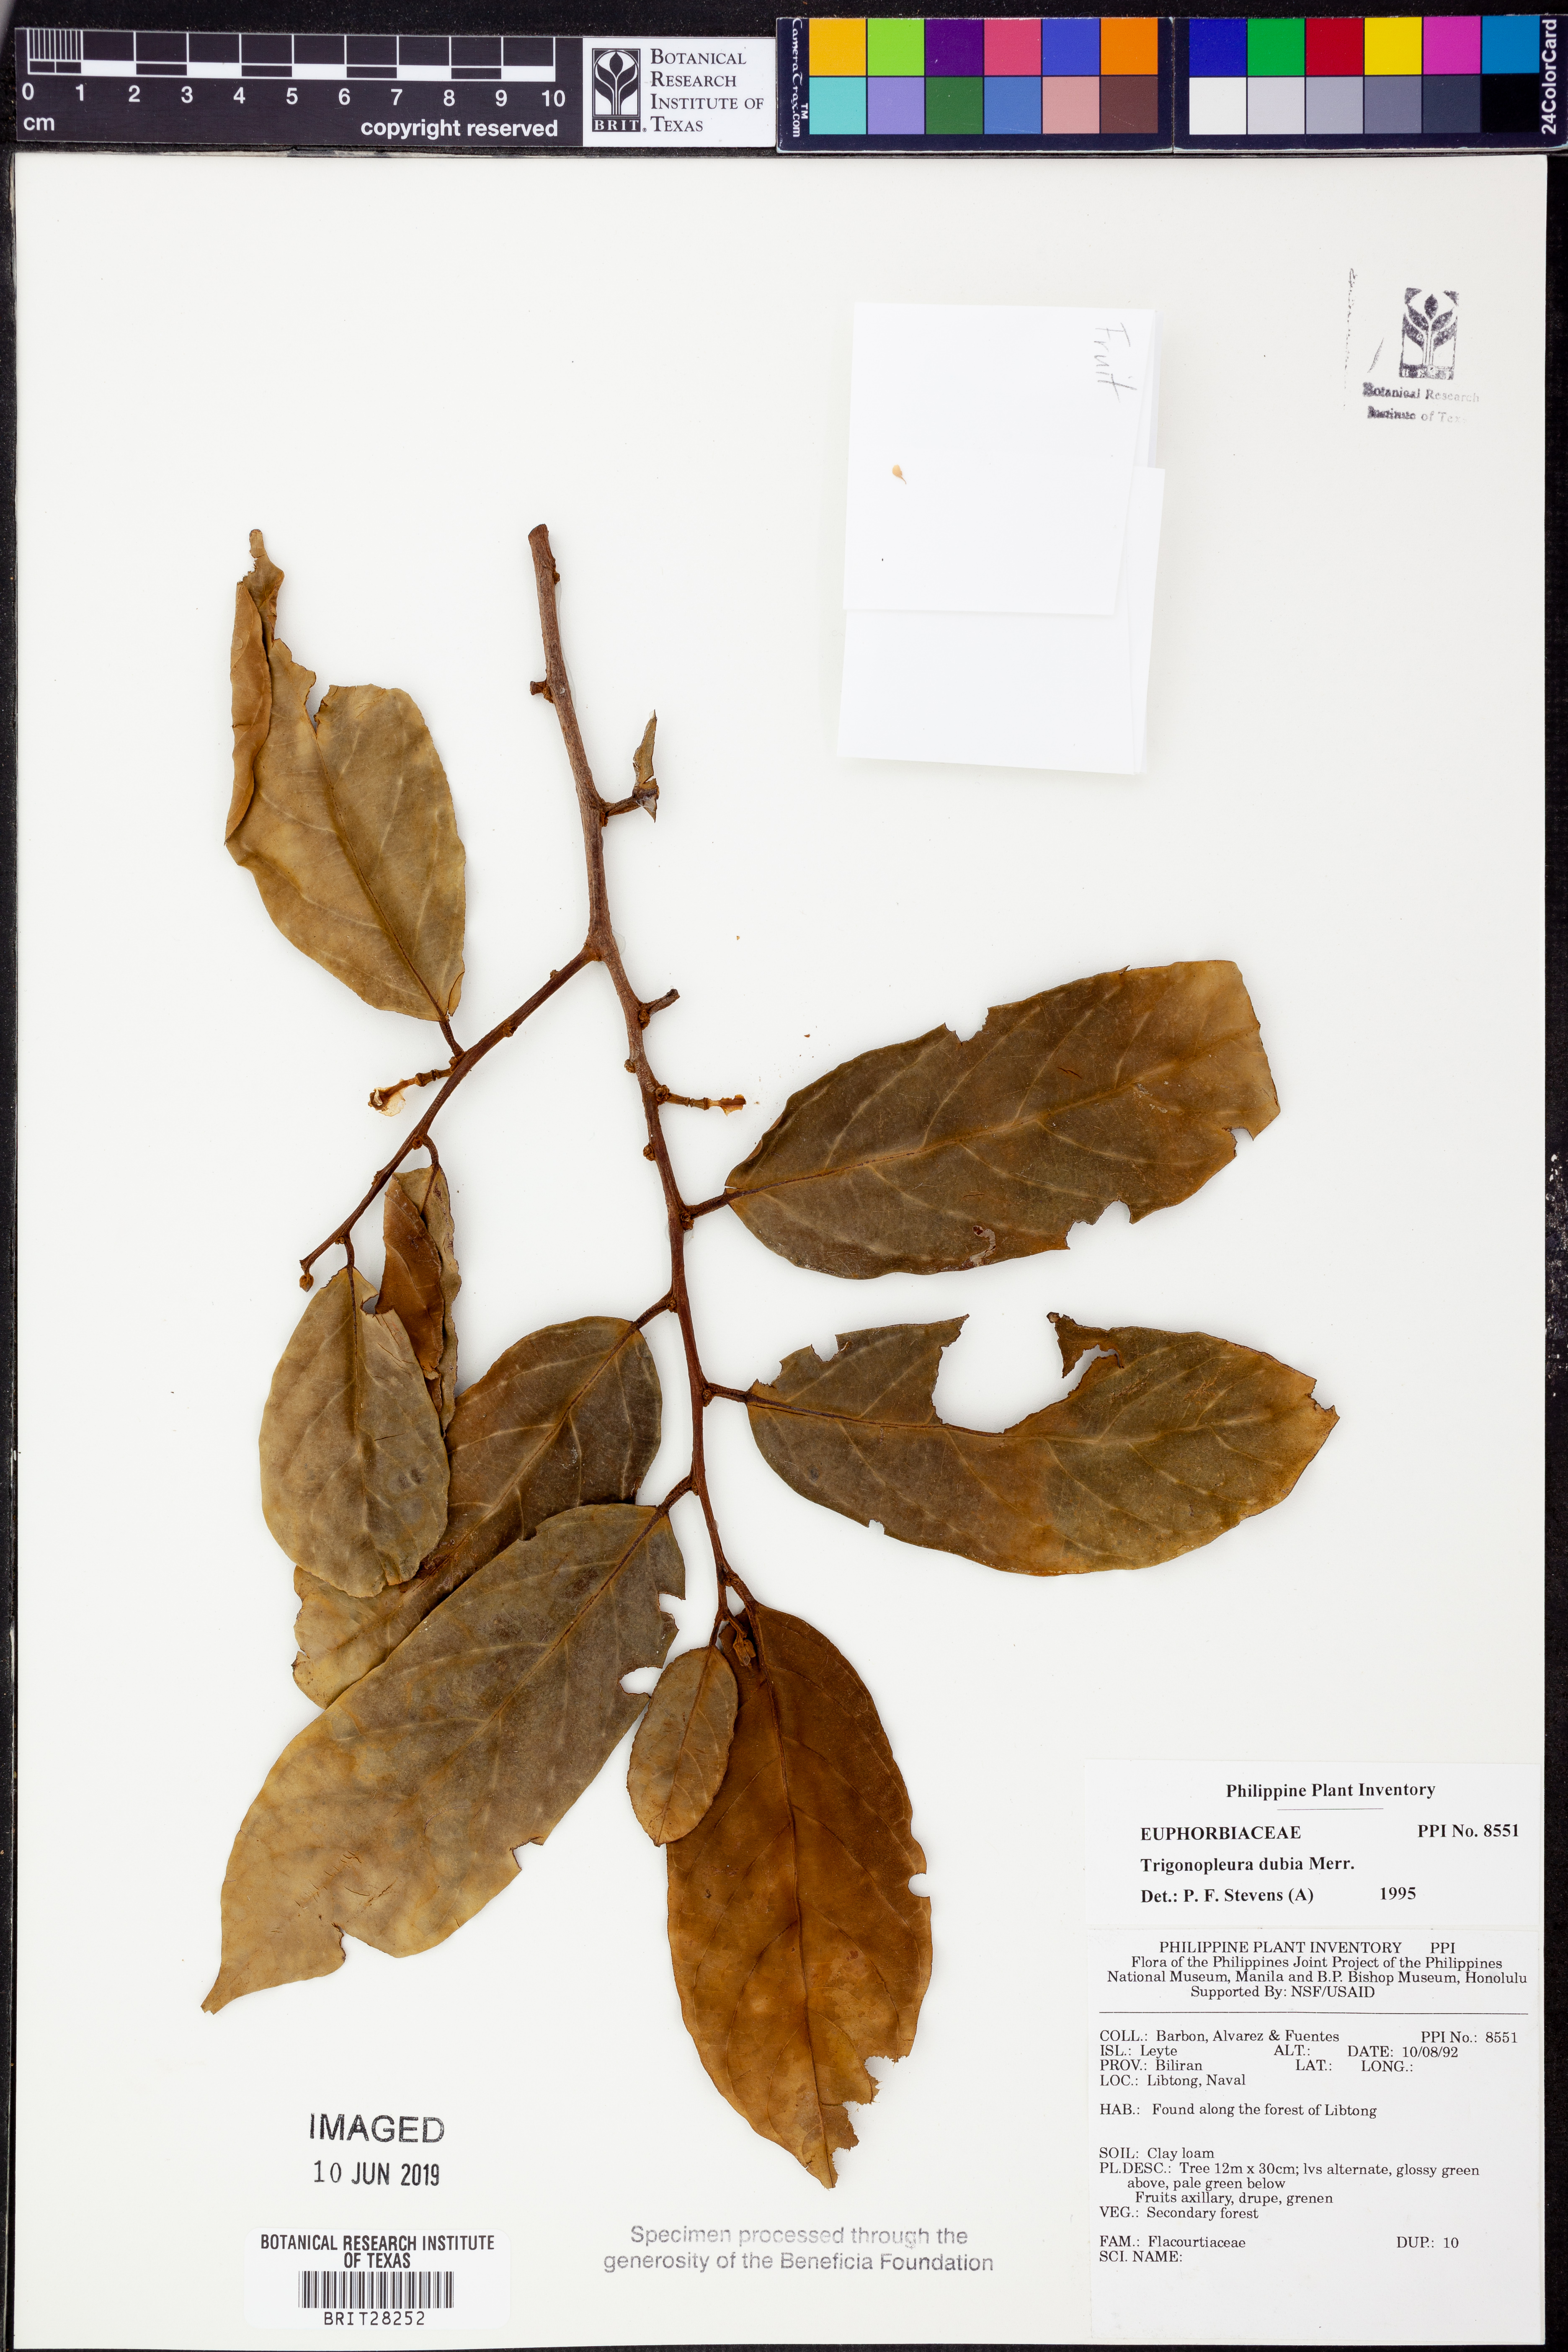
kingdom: Plantae
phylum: Tracheophyta
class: Magnoliopsida
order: Malpighiales
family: Peraceae
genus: Trigonopleura
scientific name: Trigonopleura dubia
